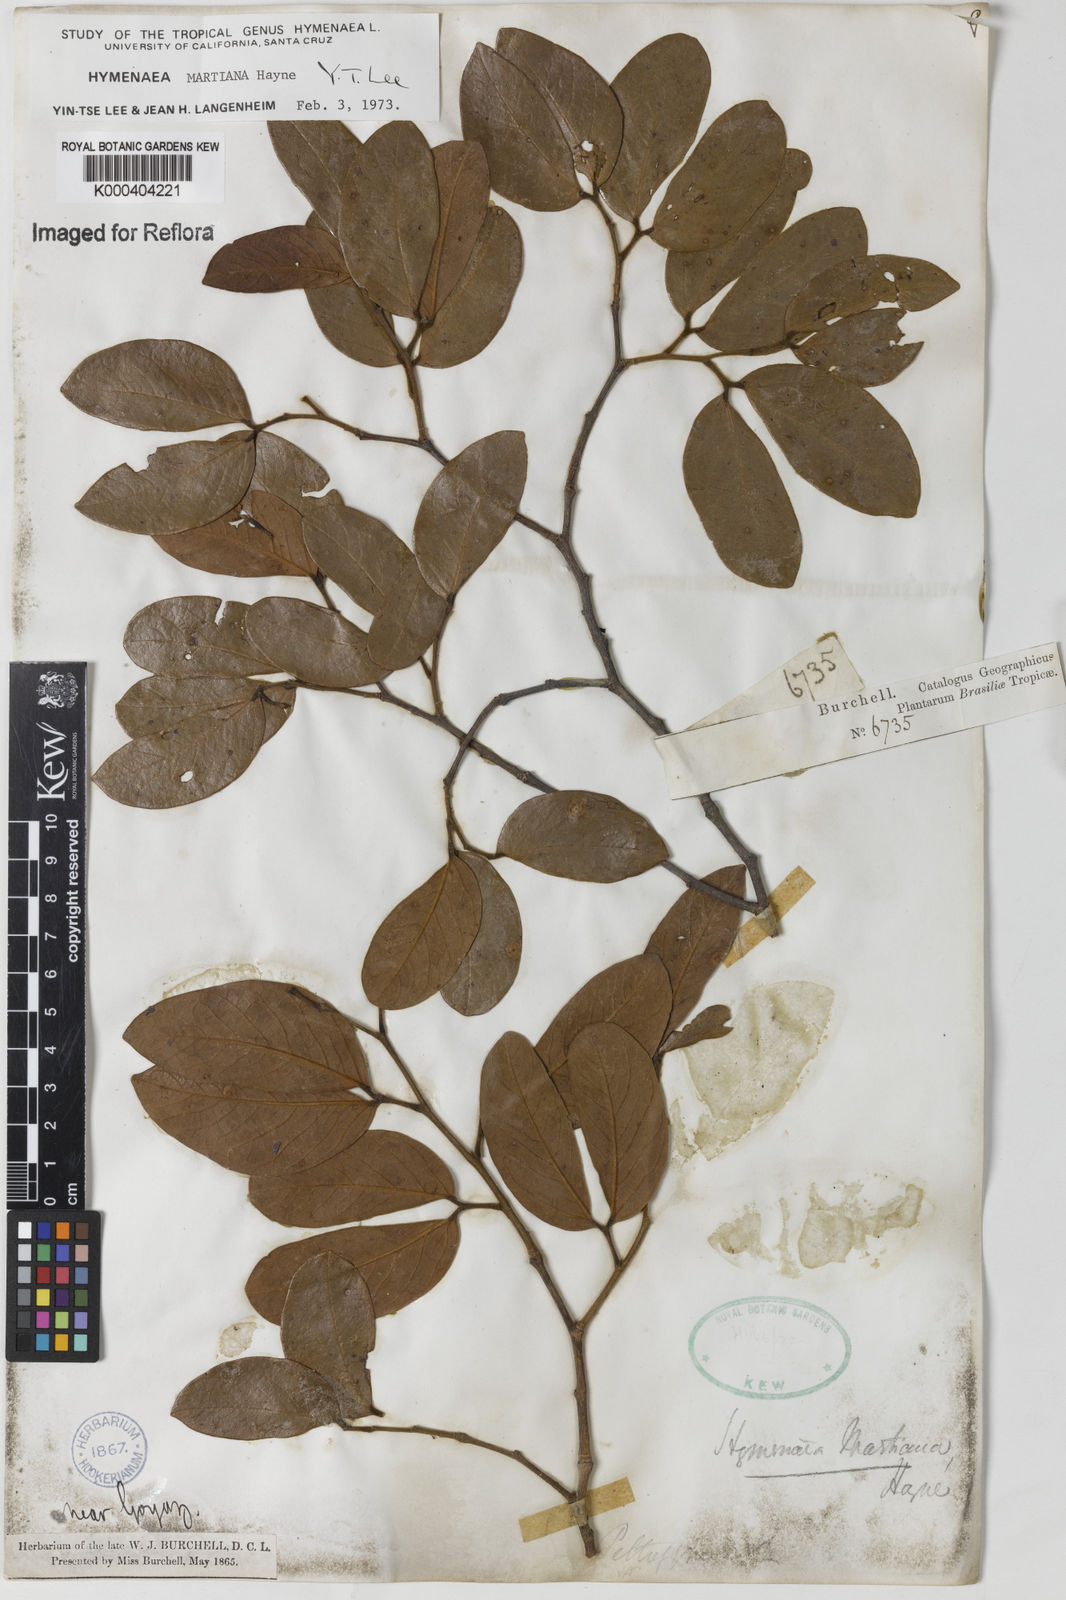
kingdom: Plantae
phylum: Tracheophyta
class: Magnoliopsida
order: Fabales
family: Fabaceae
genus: Hymenaea
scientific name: Hymenaea martiana
